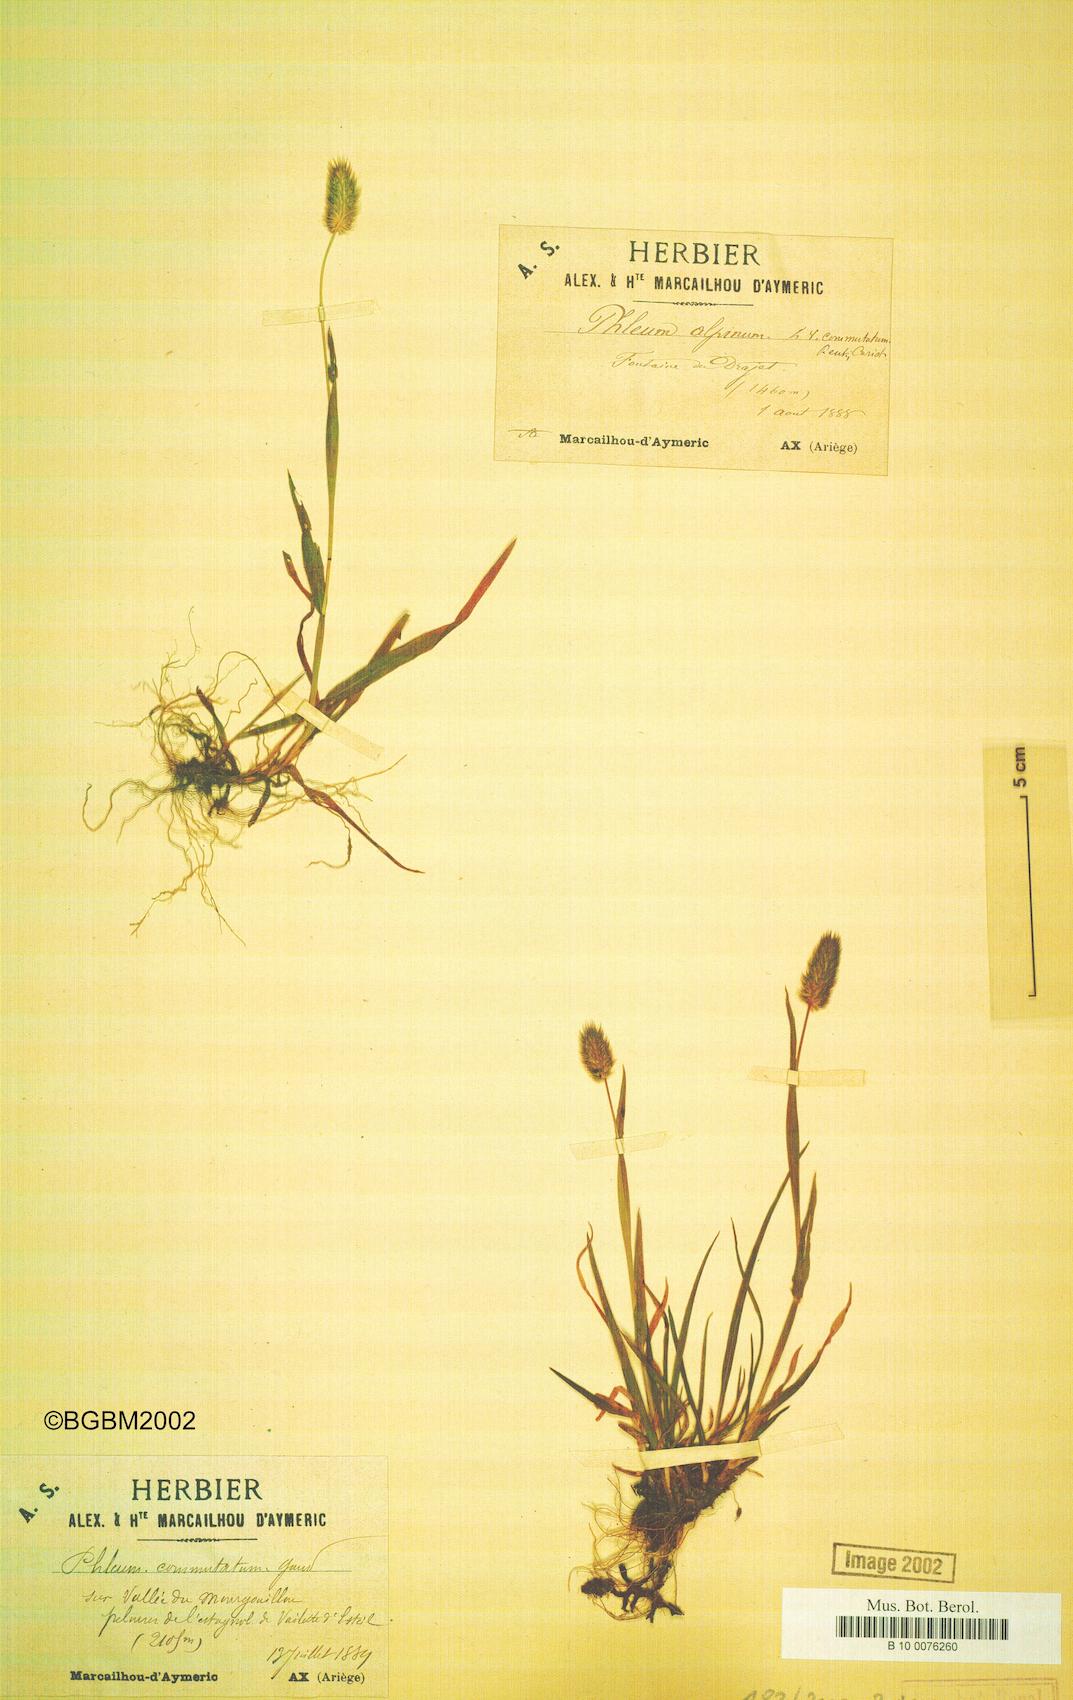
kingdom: Plantae
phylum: Tracheophyta
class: Liliopsida
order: Poales
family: Poaceae
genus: Phleum
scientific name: Phleum alpinum
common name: Alpine cat's-tail
